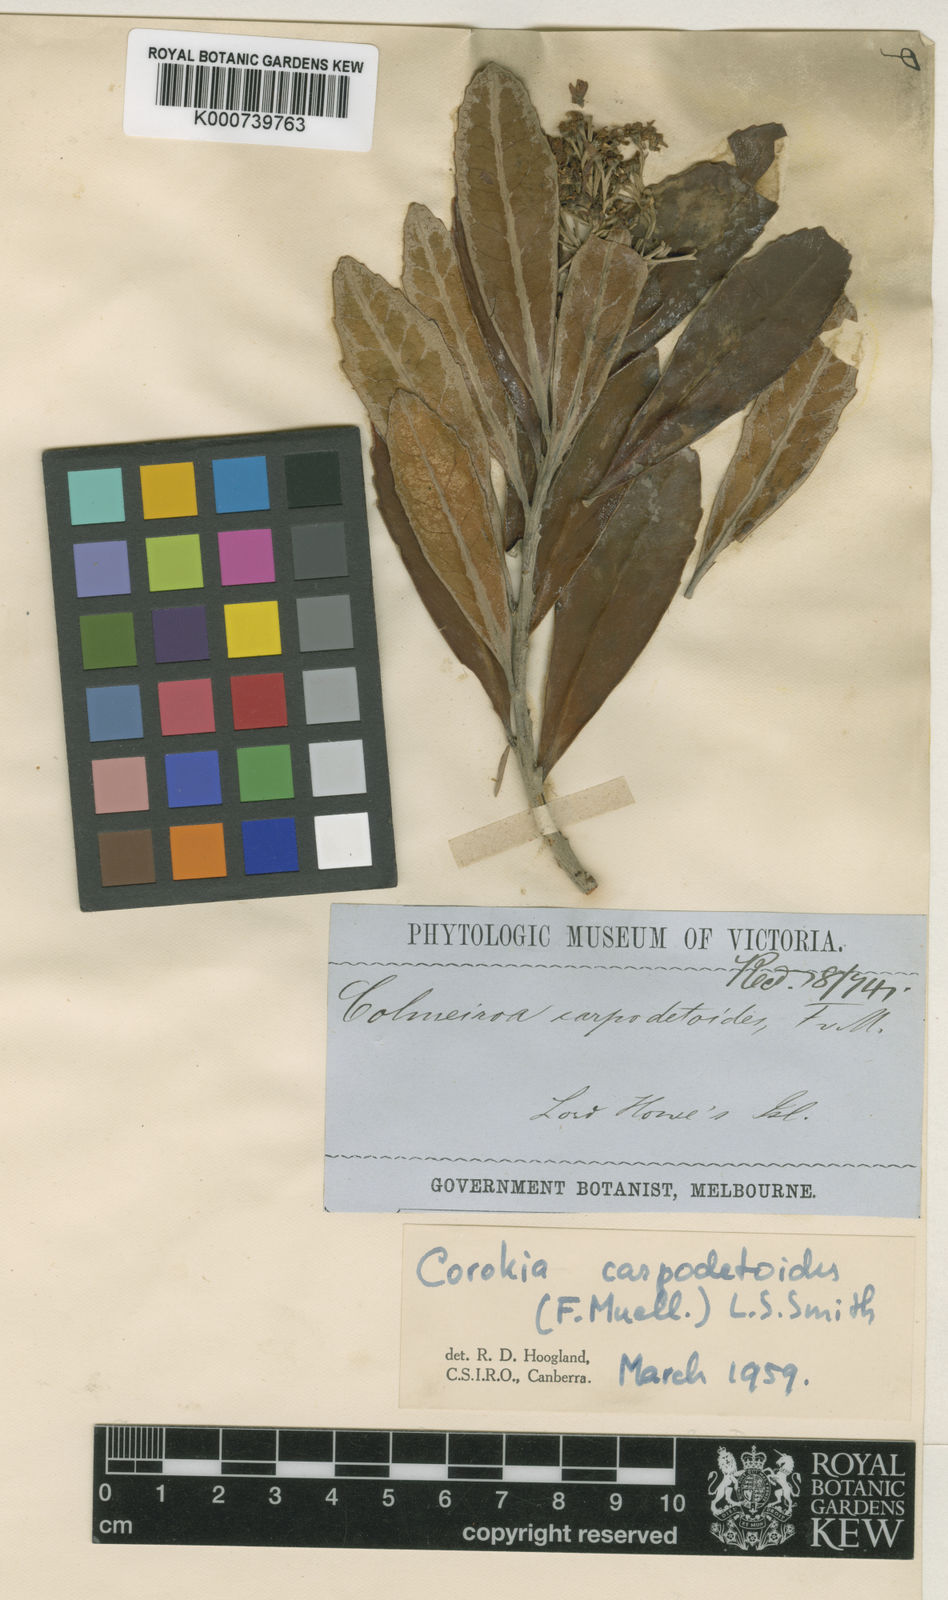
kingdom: Plantae
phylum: Tracheophyta
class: Magnoliopsida
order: Asterales
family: Argophyllaceae
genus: Corokia
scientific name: Corokia carpodetoides
